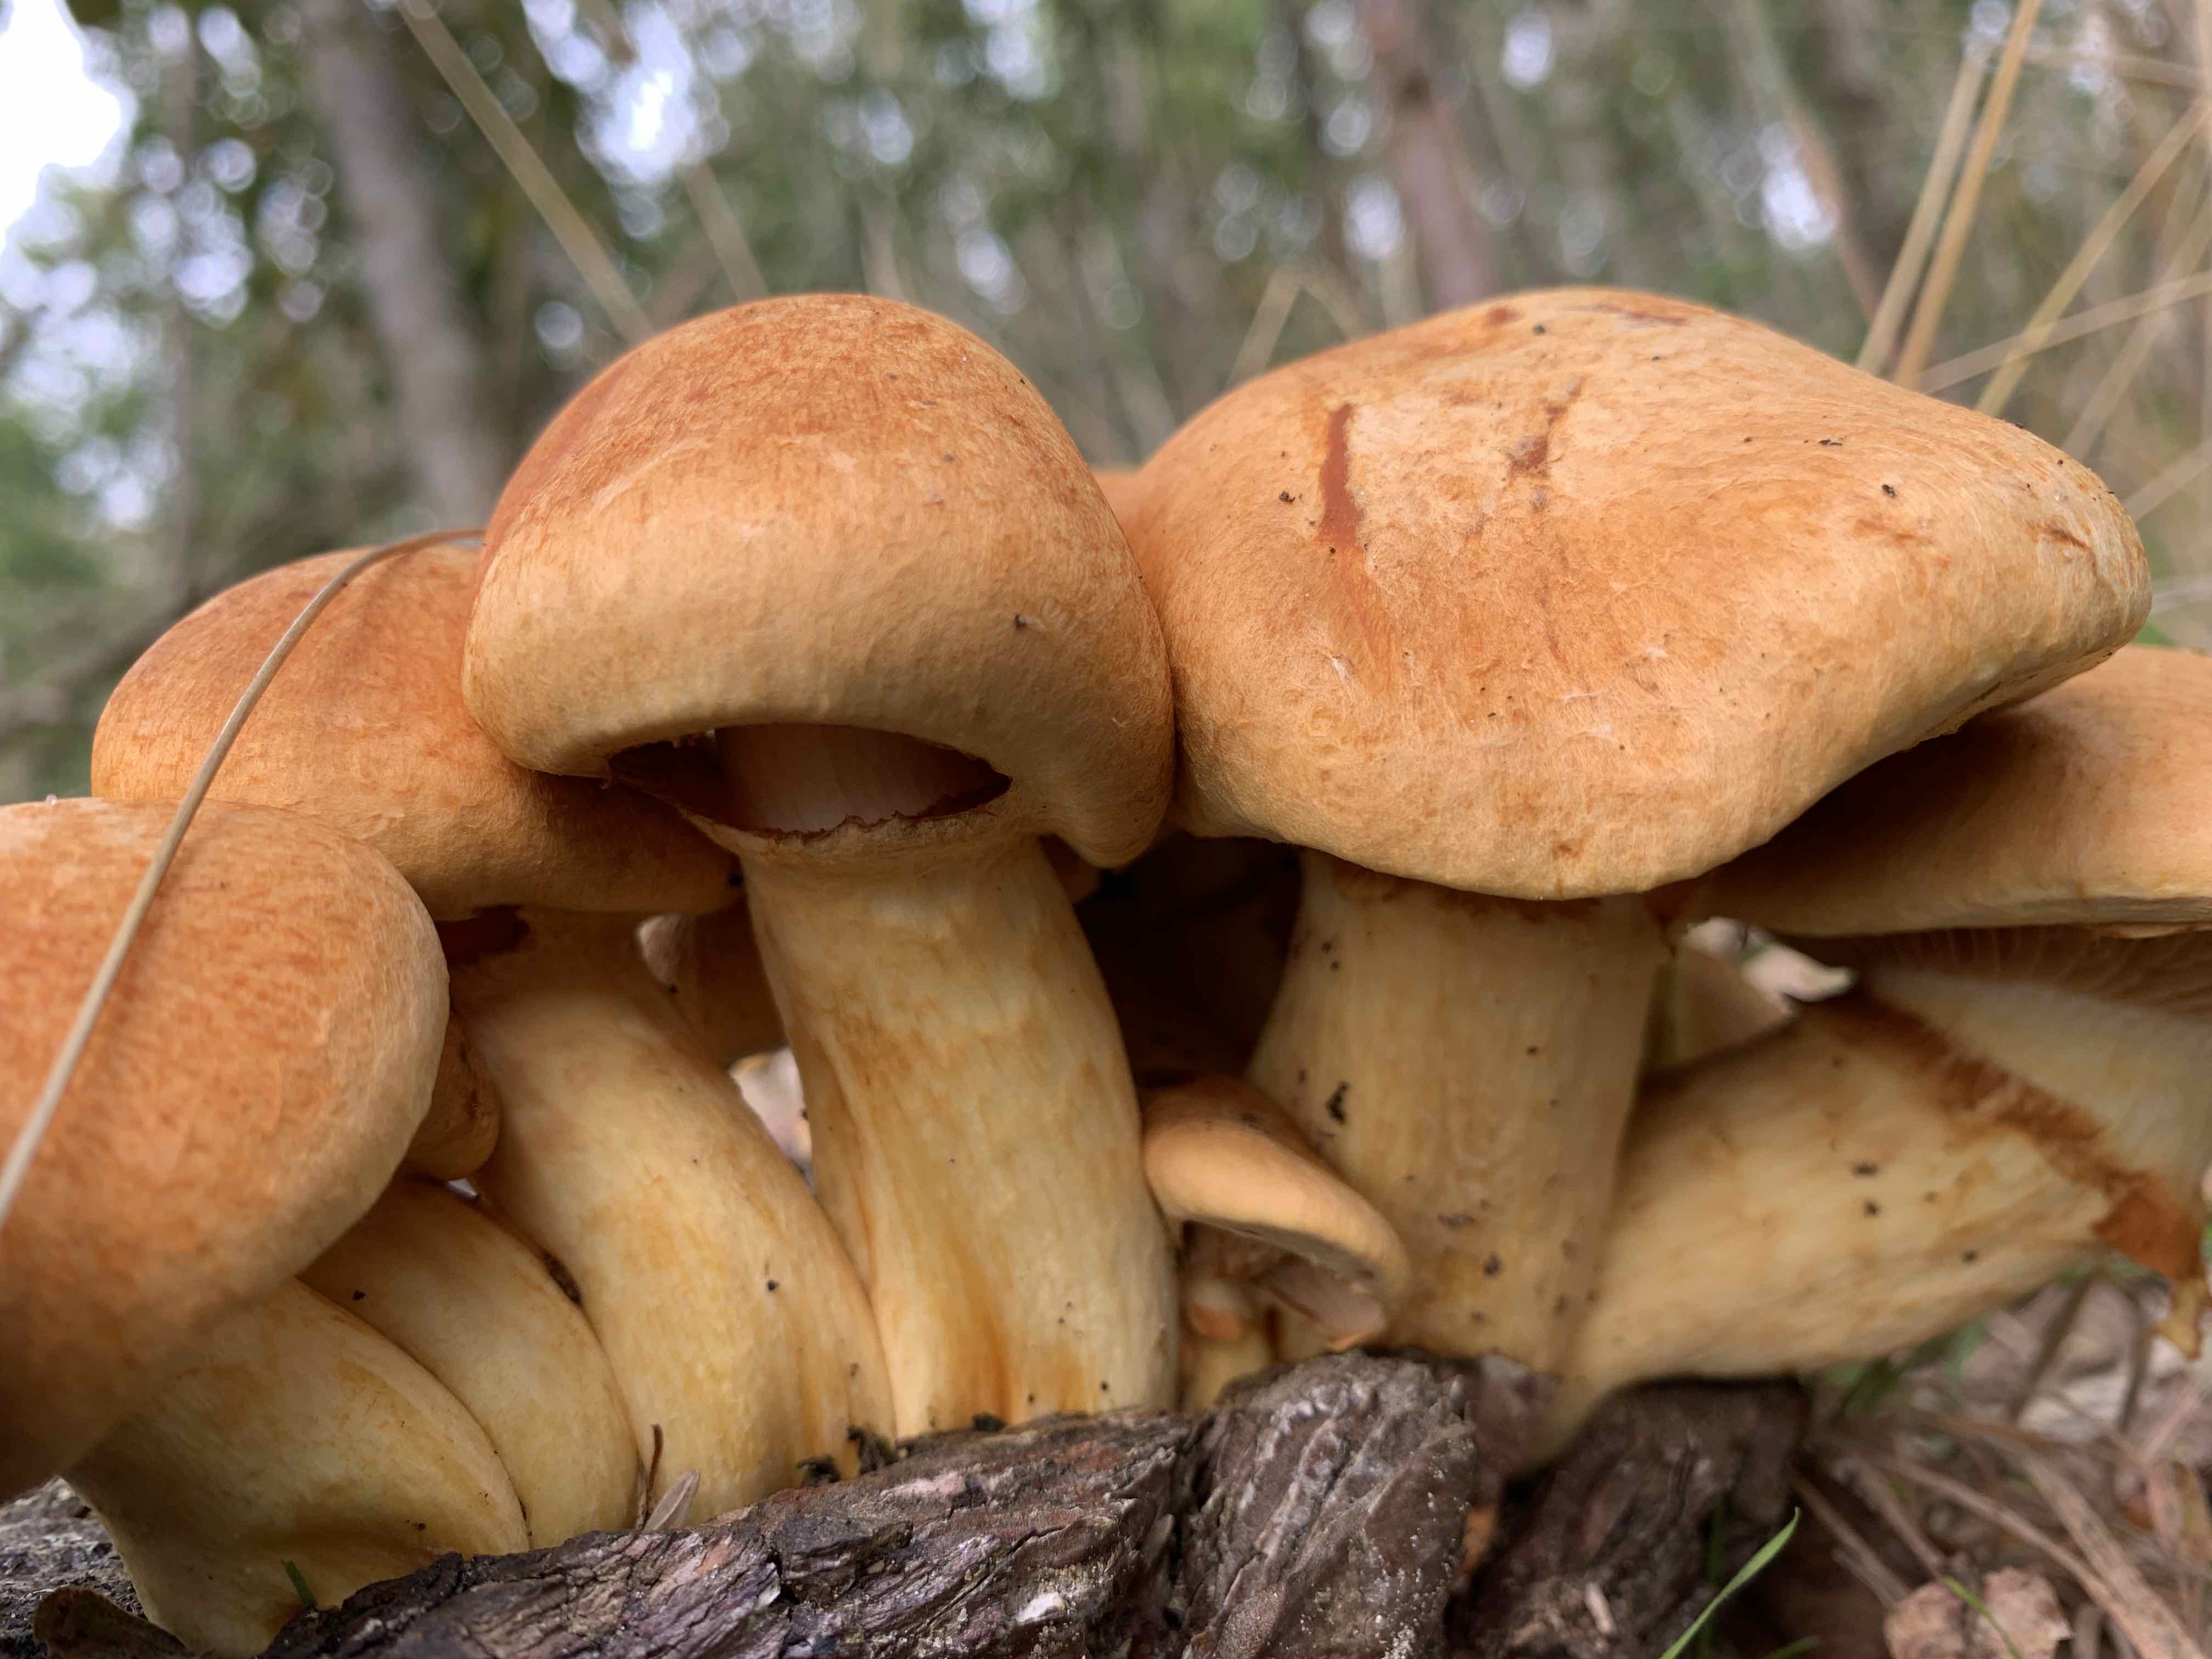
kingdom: Fungi
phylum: Basidiomycota
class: Agaricomycetes
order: Agaricales
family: Hymenogastraceae
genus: Gymnopilus
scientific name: Gymnopilus spectabilis
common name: fibret flammehat
